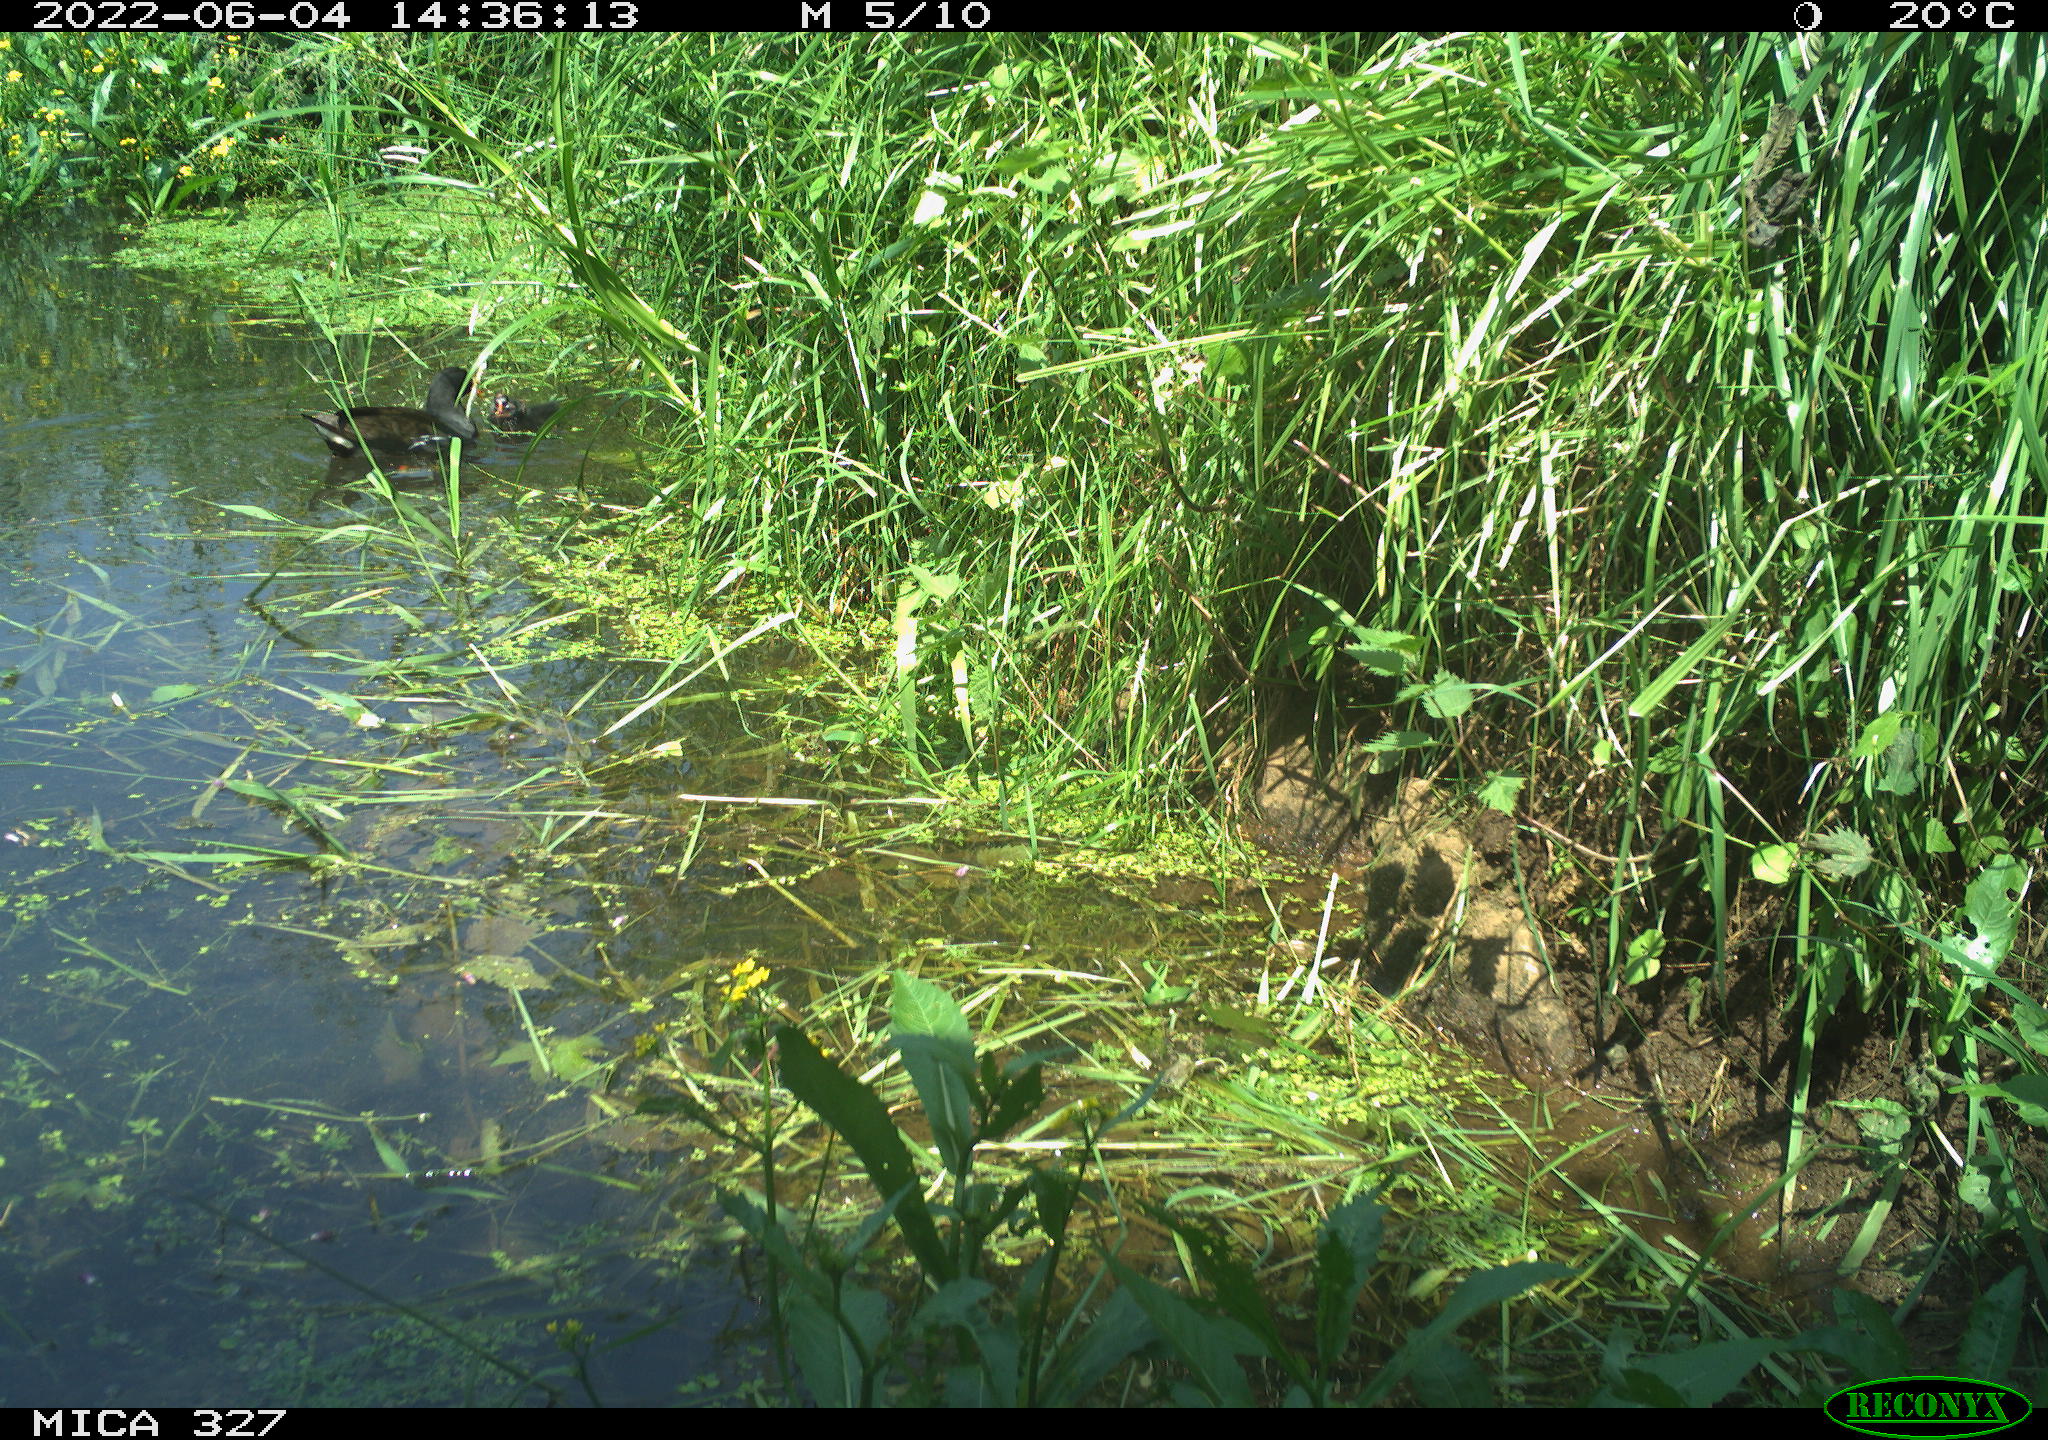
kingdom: Animalia
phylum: Chordata
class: Aves
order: Gruiformes
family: Rallidae
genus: Gallinula
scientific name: Gallinula chloropus
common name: Common moorhen
